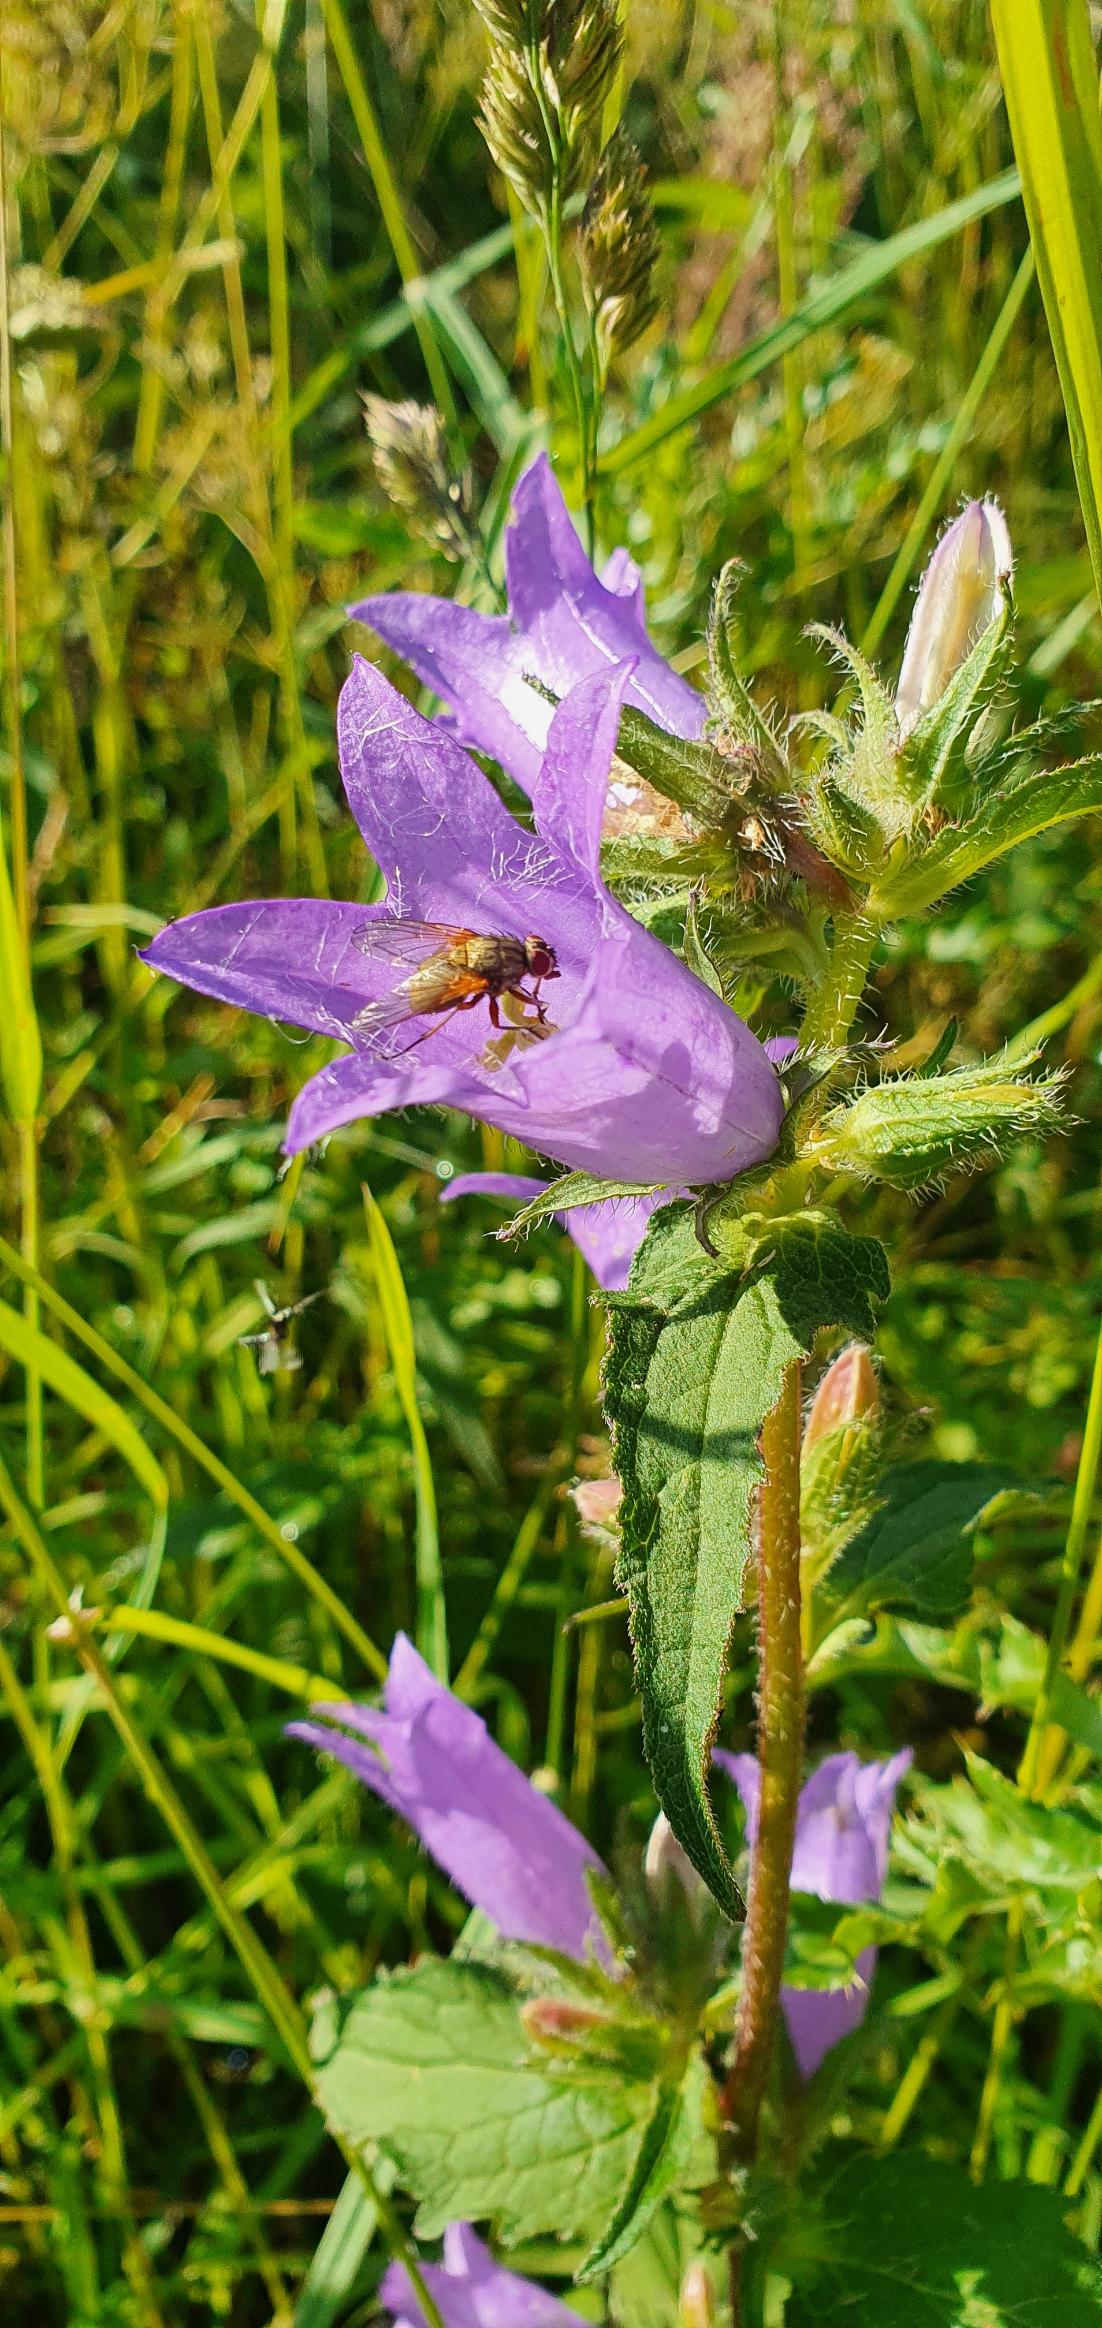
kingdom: Plantae
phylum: Tracheophyta
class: Magnoliopsida
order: Asterales
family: Campanulaceae
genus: Campanula
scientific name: Campanula trachelium
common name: Nælde-klokke
